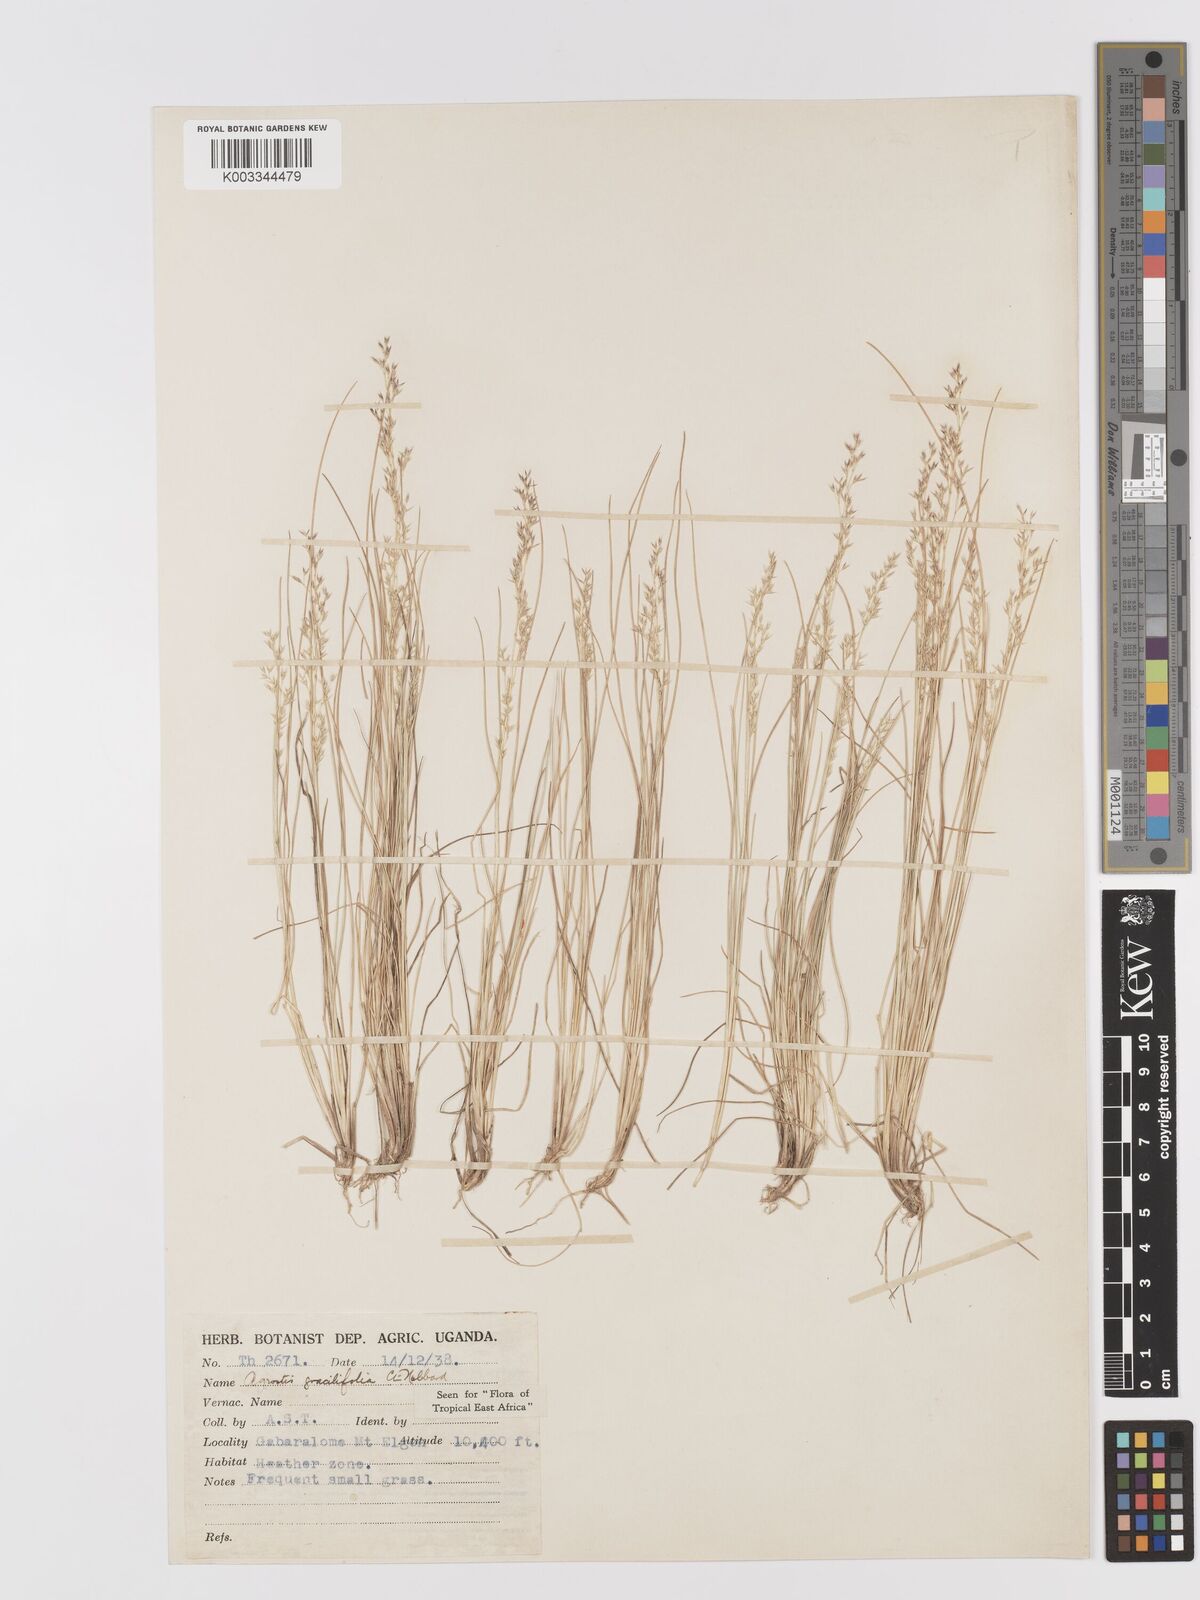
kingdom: Plantae
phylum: Tracheophyta
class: Liliopsida
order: Poales
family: Poaceae
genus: Agrostis
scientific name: Agrostis gracilifolia
